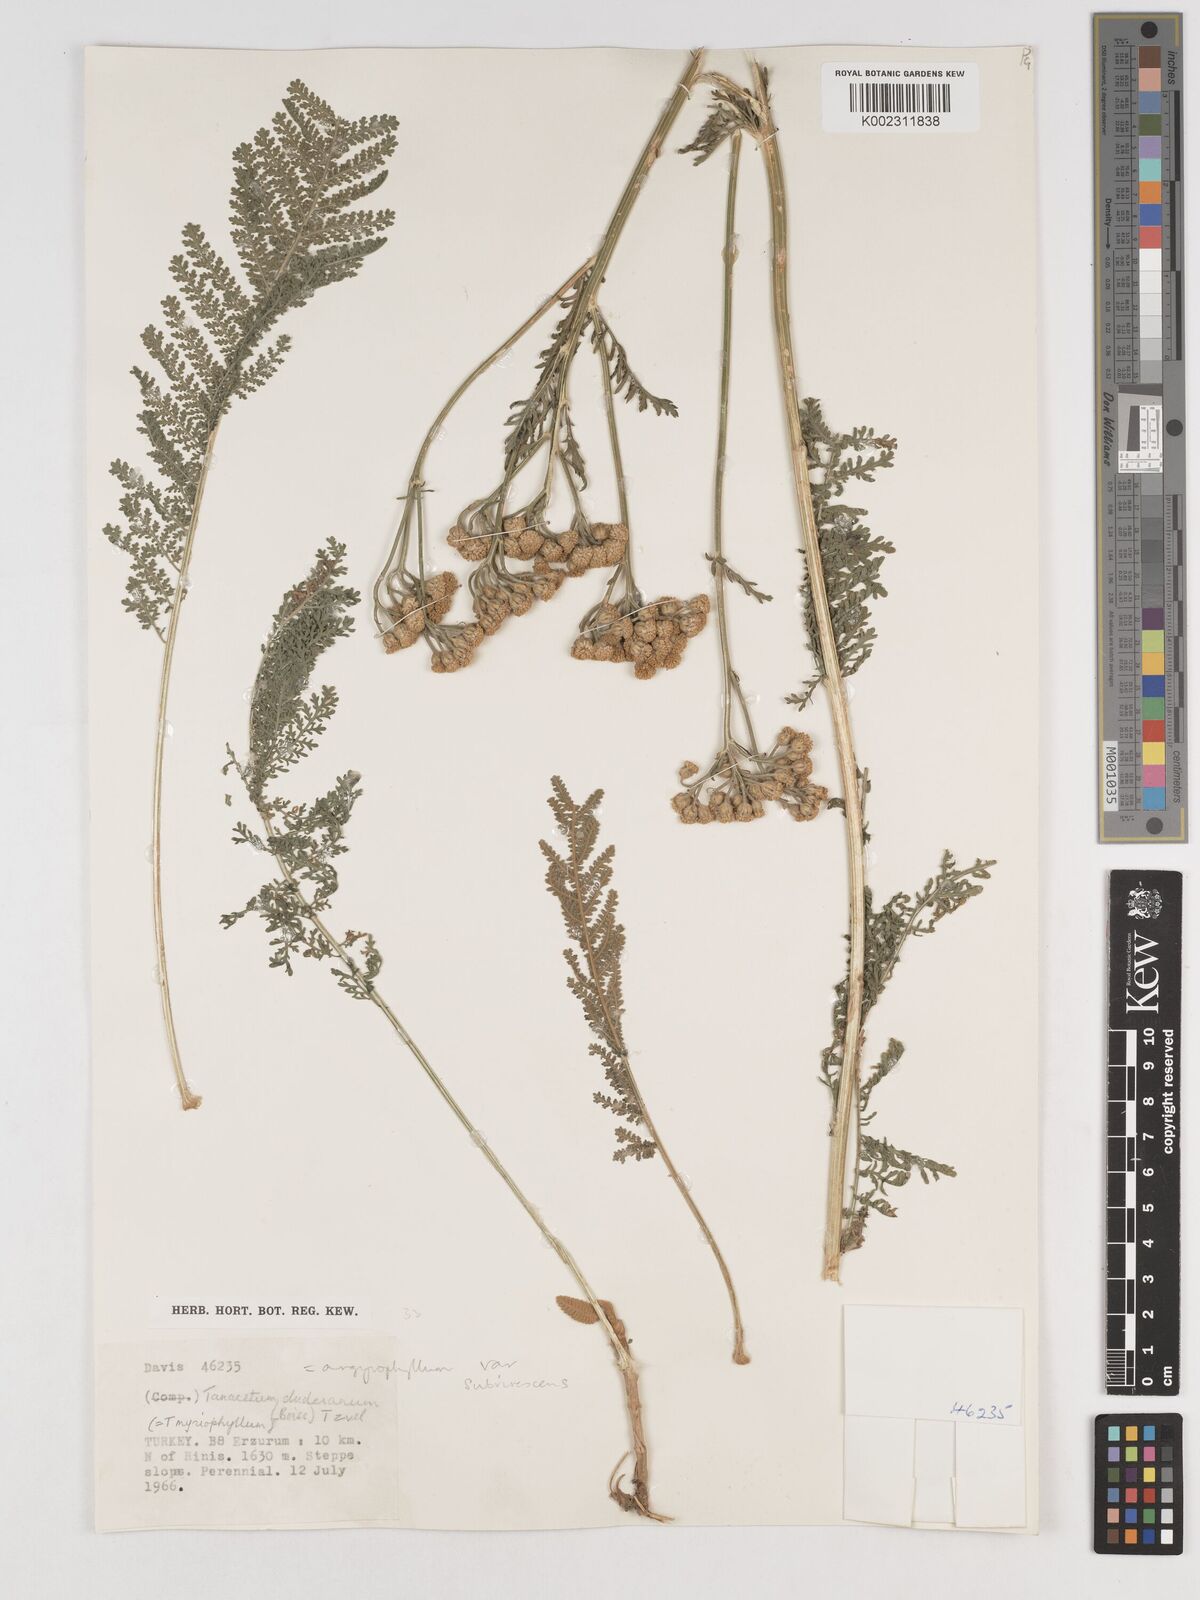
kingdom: Plantae
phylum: Tracheophyta
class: Magnoliopsida
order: Asterales
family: Asteraceae
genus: Tanacetum
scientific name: Tanacetum aureum
